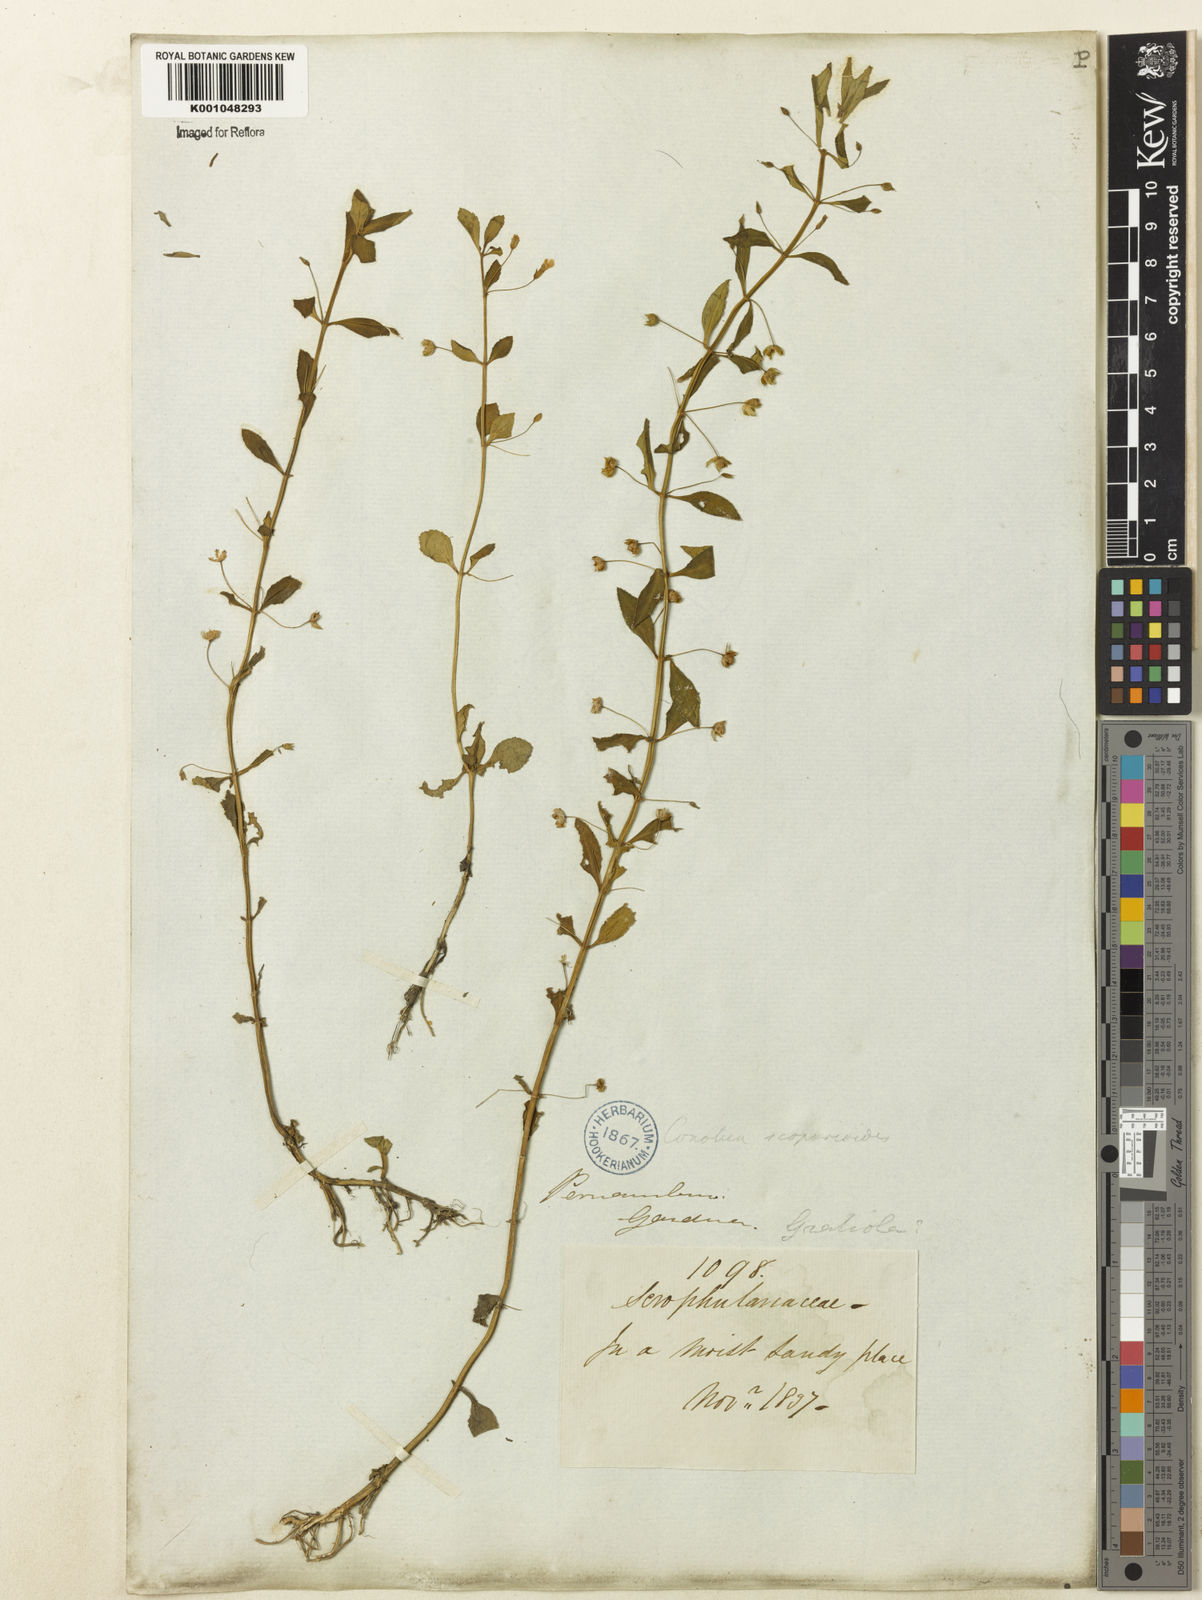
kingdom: Plantae
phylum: Tracheophyta
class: Magnoliopsida
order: Lamiales
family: Plantaginaceae
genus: Conobea
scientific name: Conobea scoparioides
